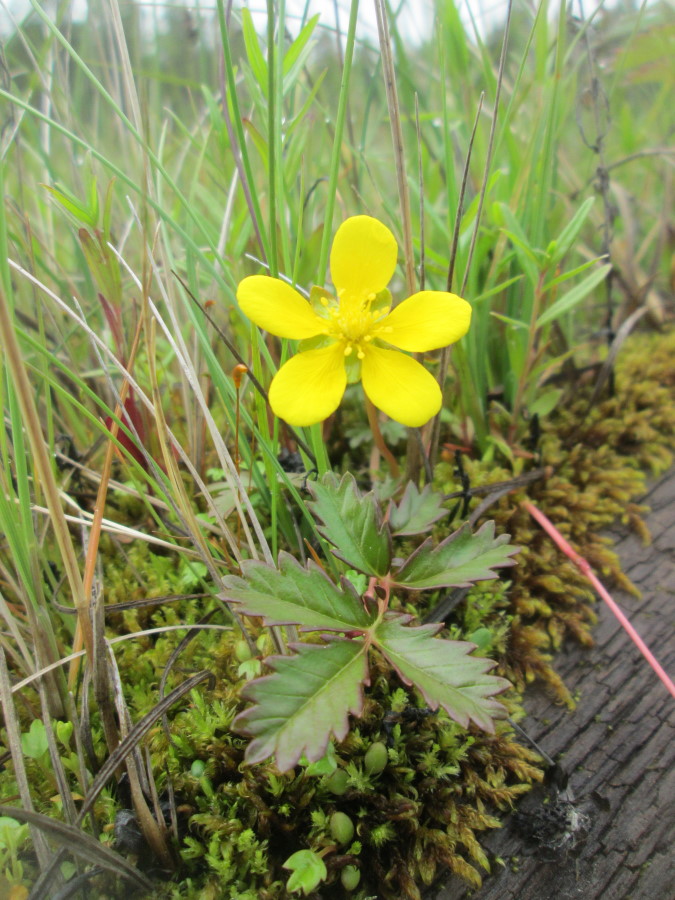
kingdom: Plantae
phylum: Tracheophyta
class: Magnoliopsida
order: Rosales
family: Rosaceae
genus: Argentina
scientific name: Argentina anserina
